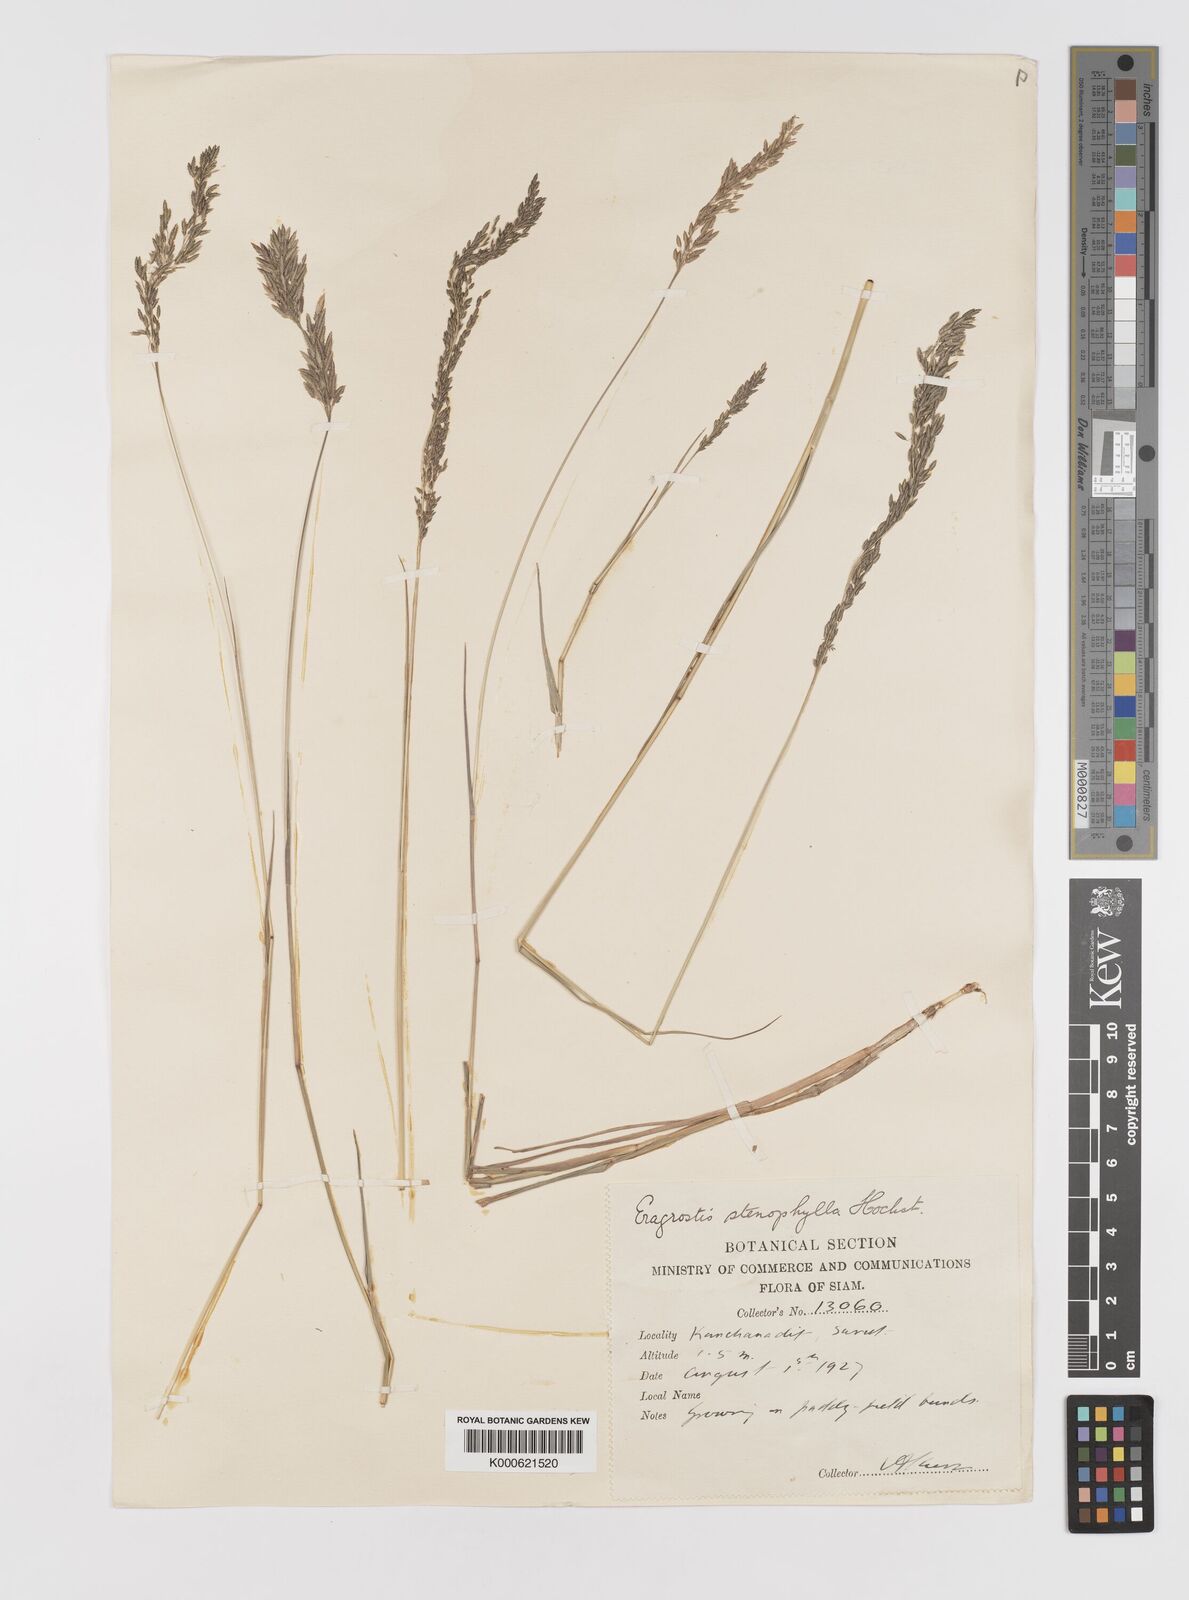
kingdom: Plantae
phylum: Tracheophyta
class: Liliopsida
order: Poales
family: Poaceae
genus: Eragrostis
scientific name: Eragrostis
